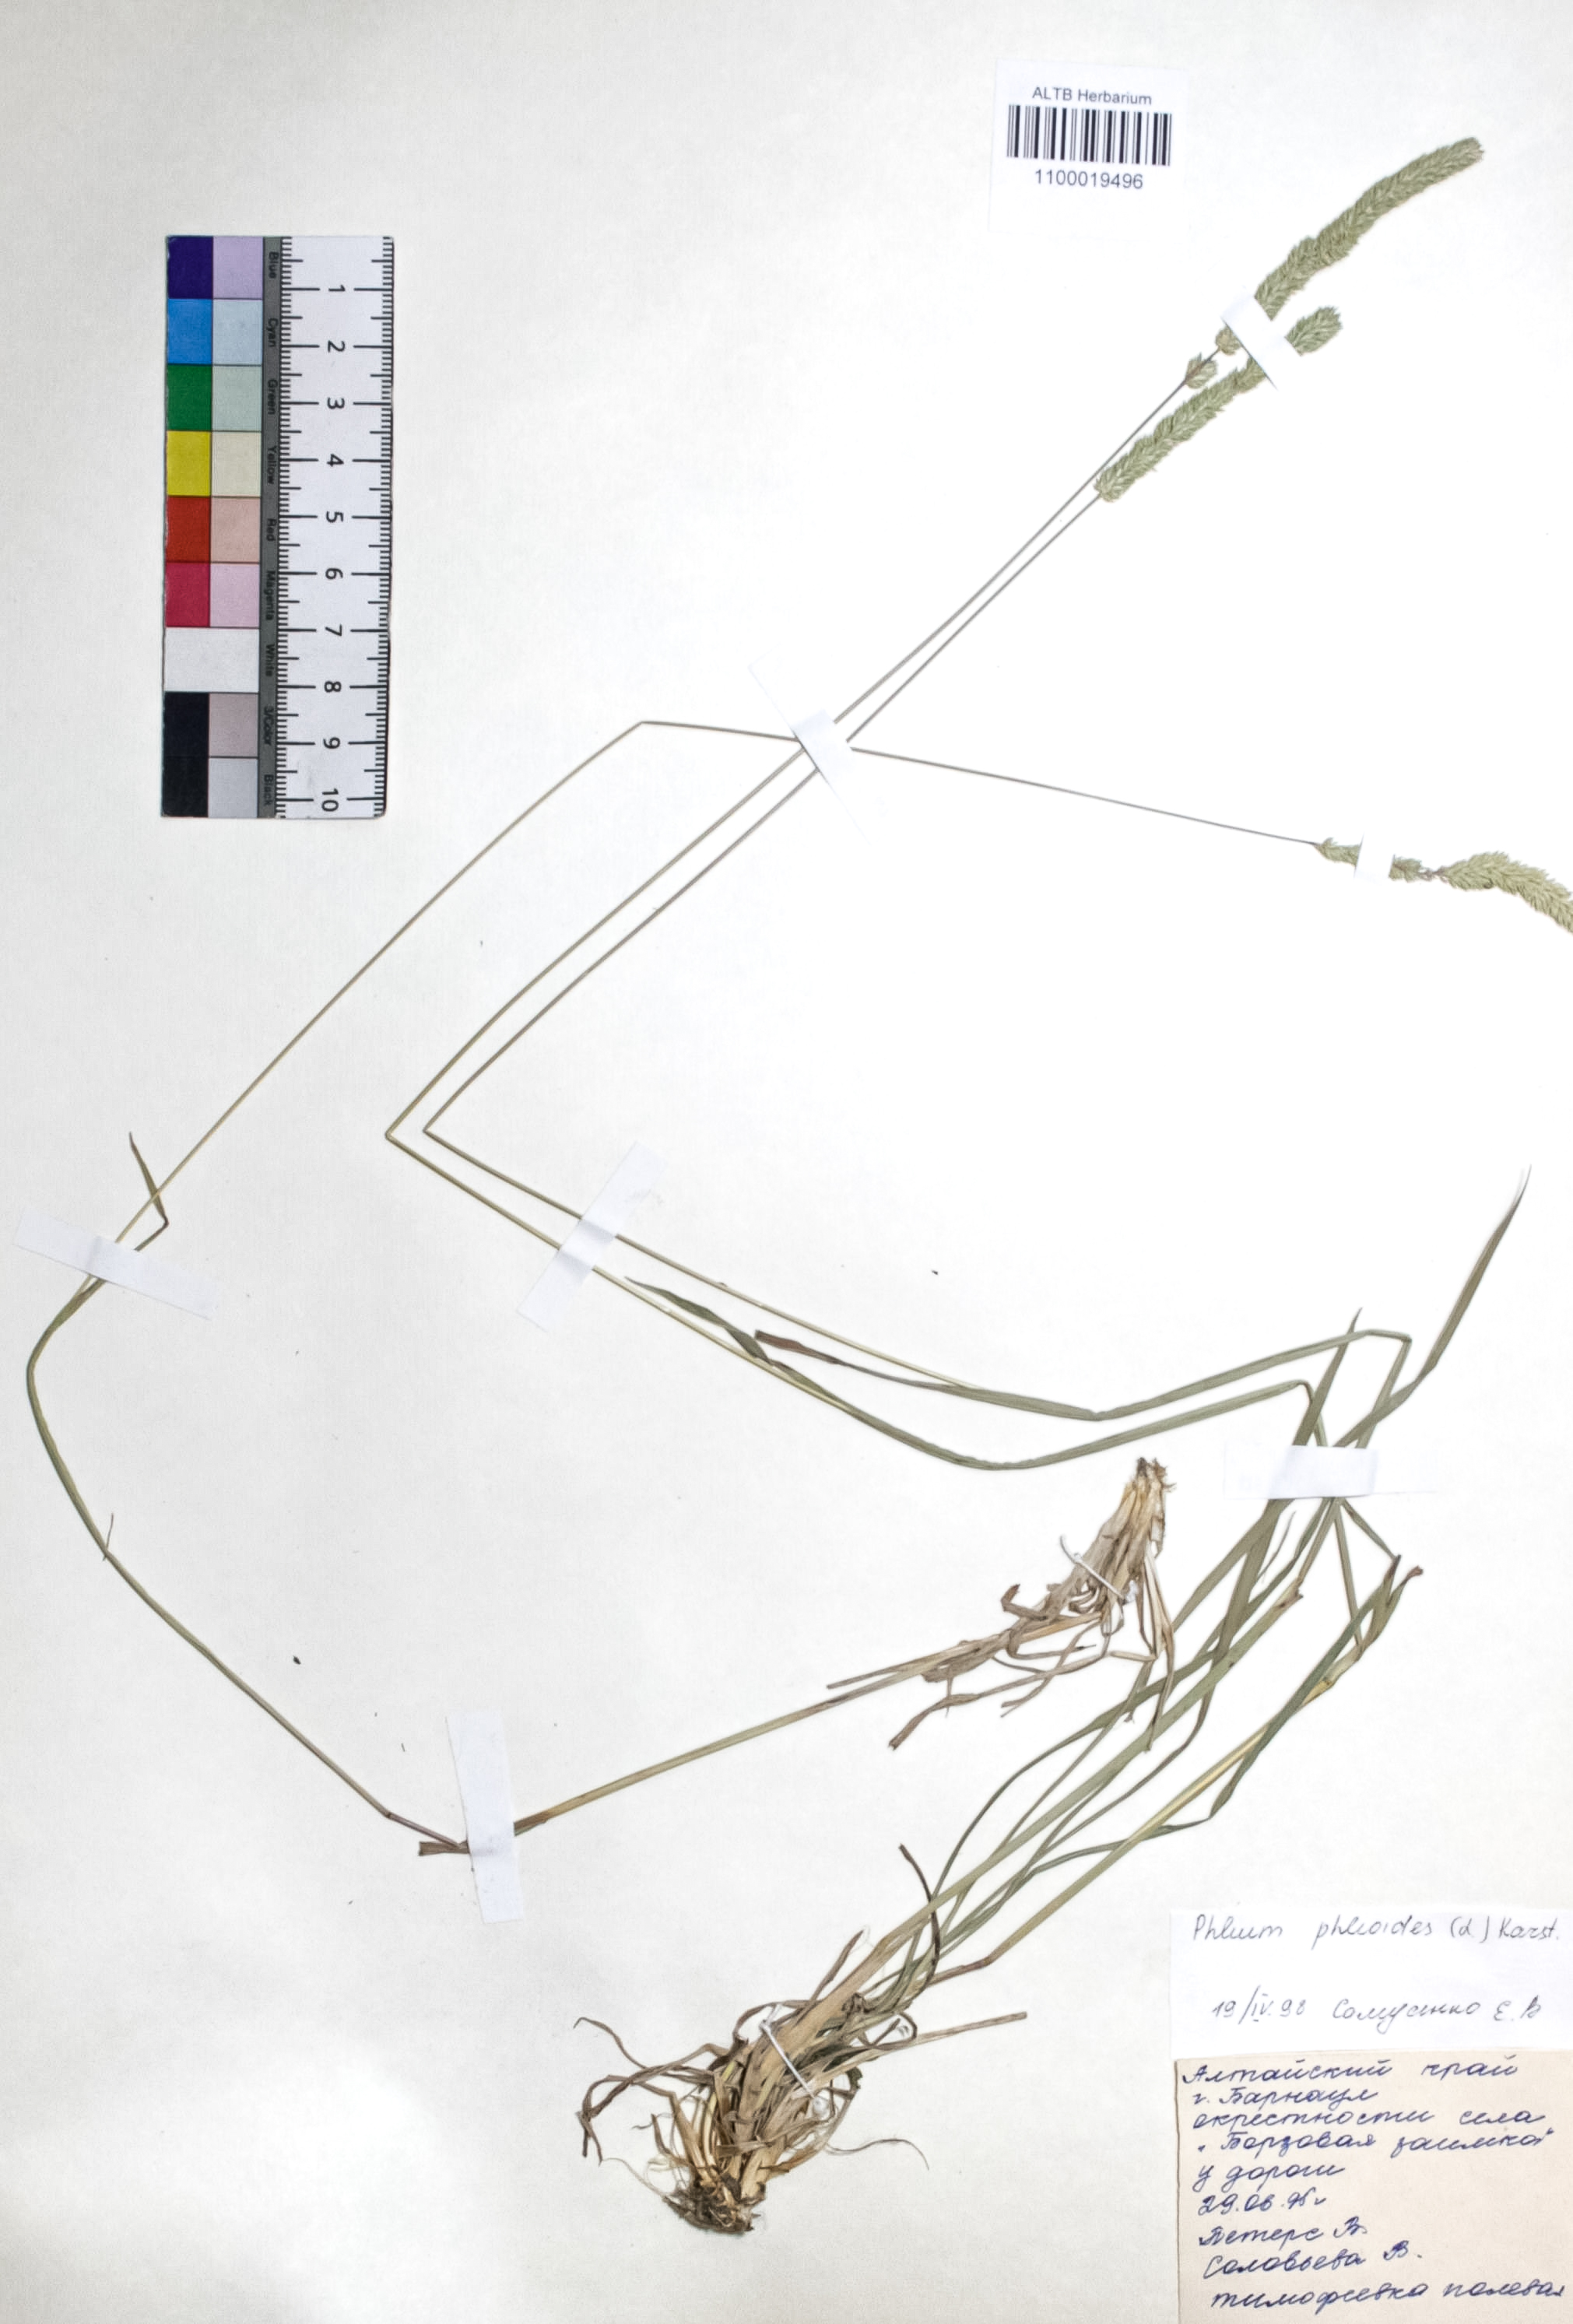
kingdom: Plantae
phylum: Tracheophyta
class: Liliopsida
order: Poales
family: Poaceae
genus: Phleum
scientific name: Phleum phleoides
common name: Purple-stem cat's-tail
